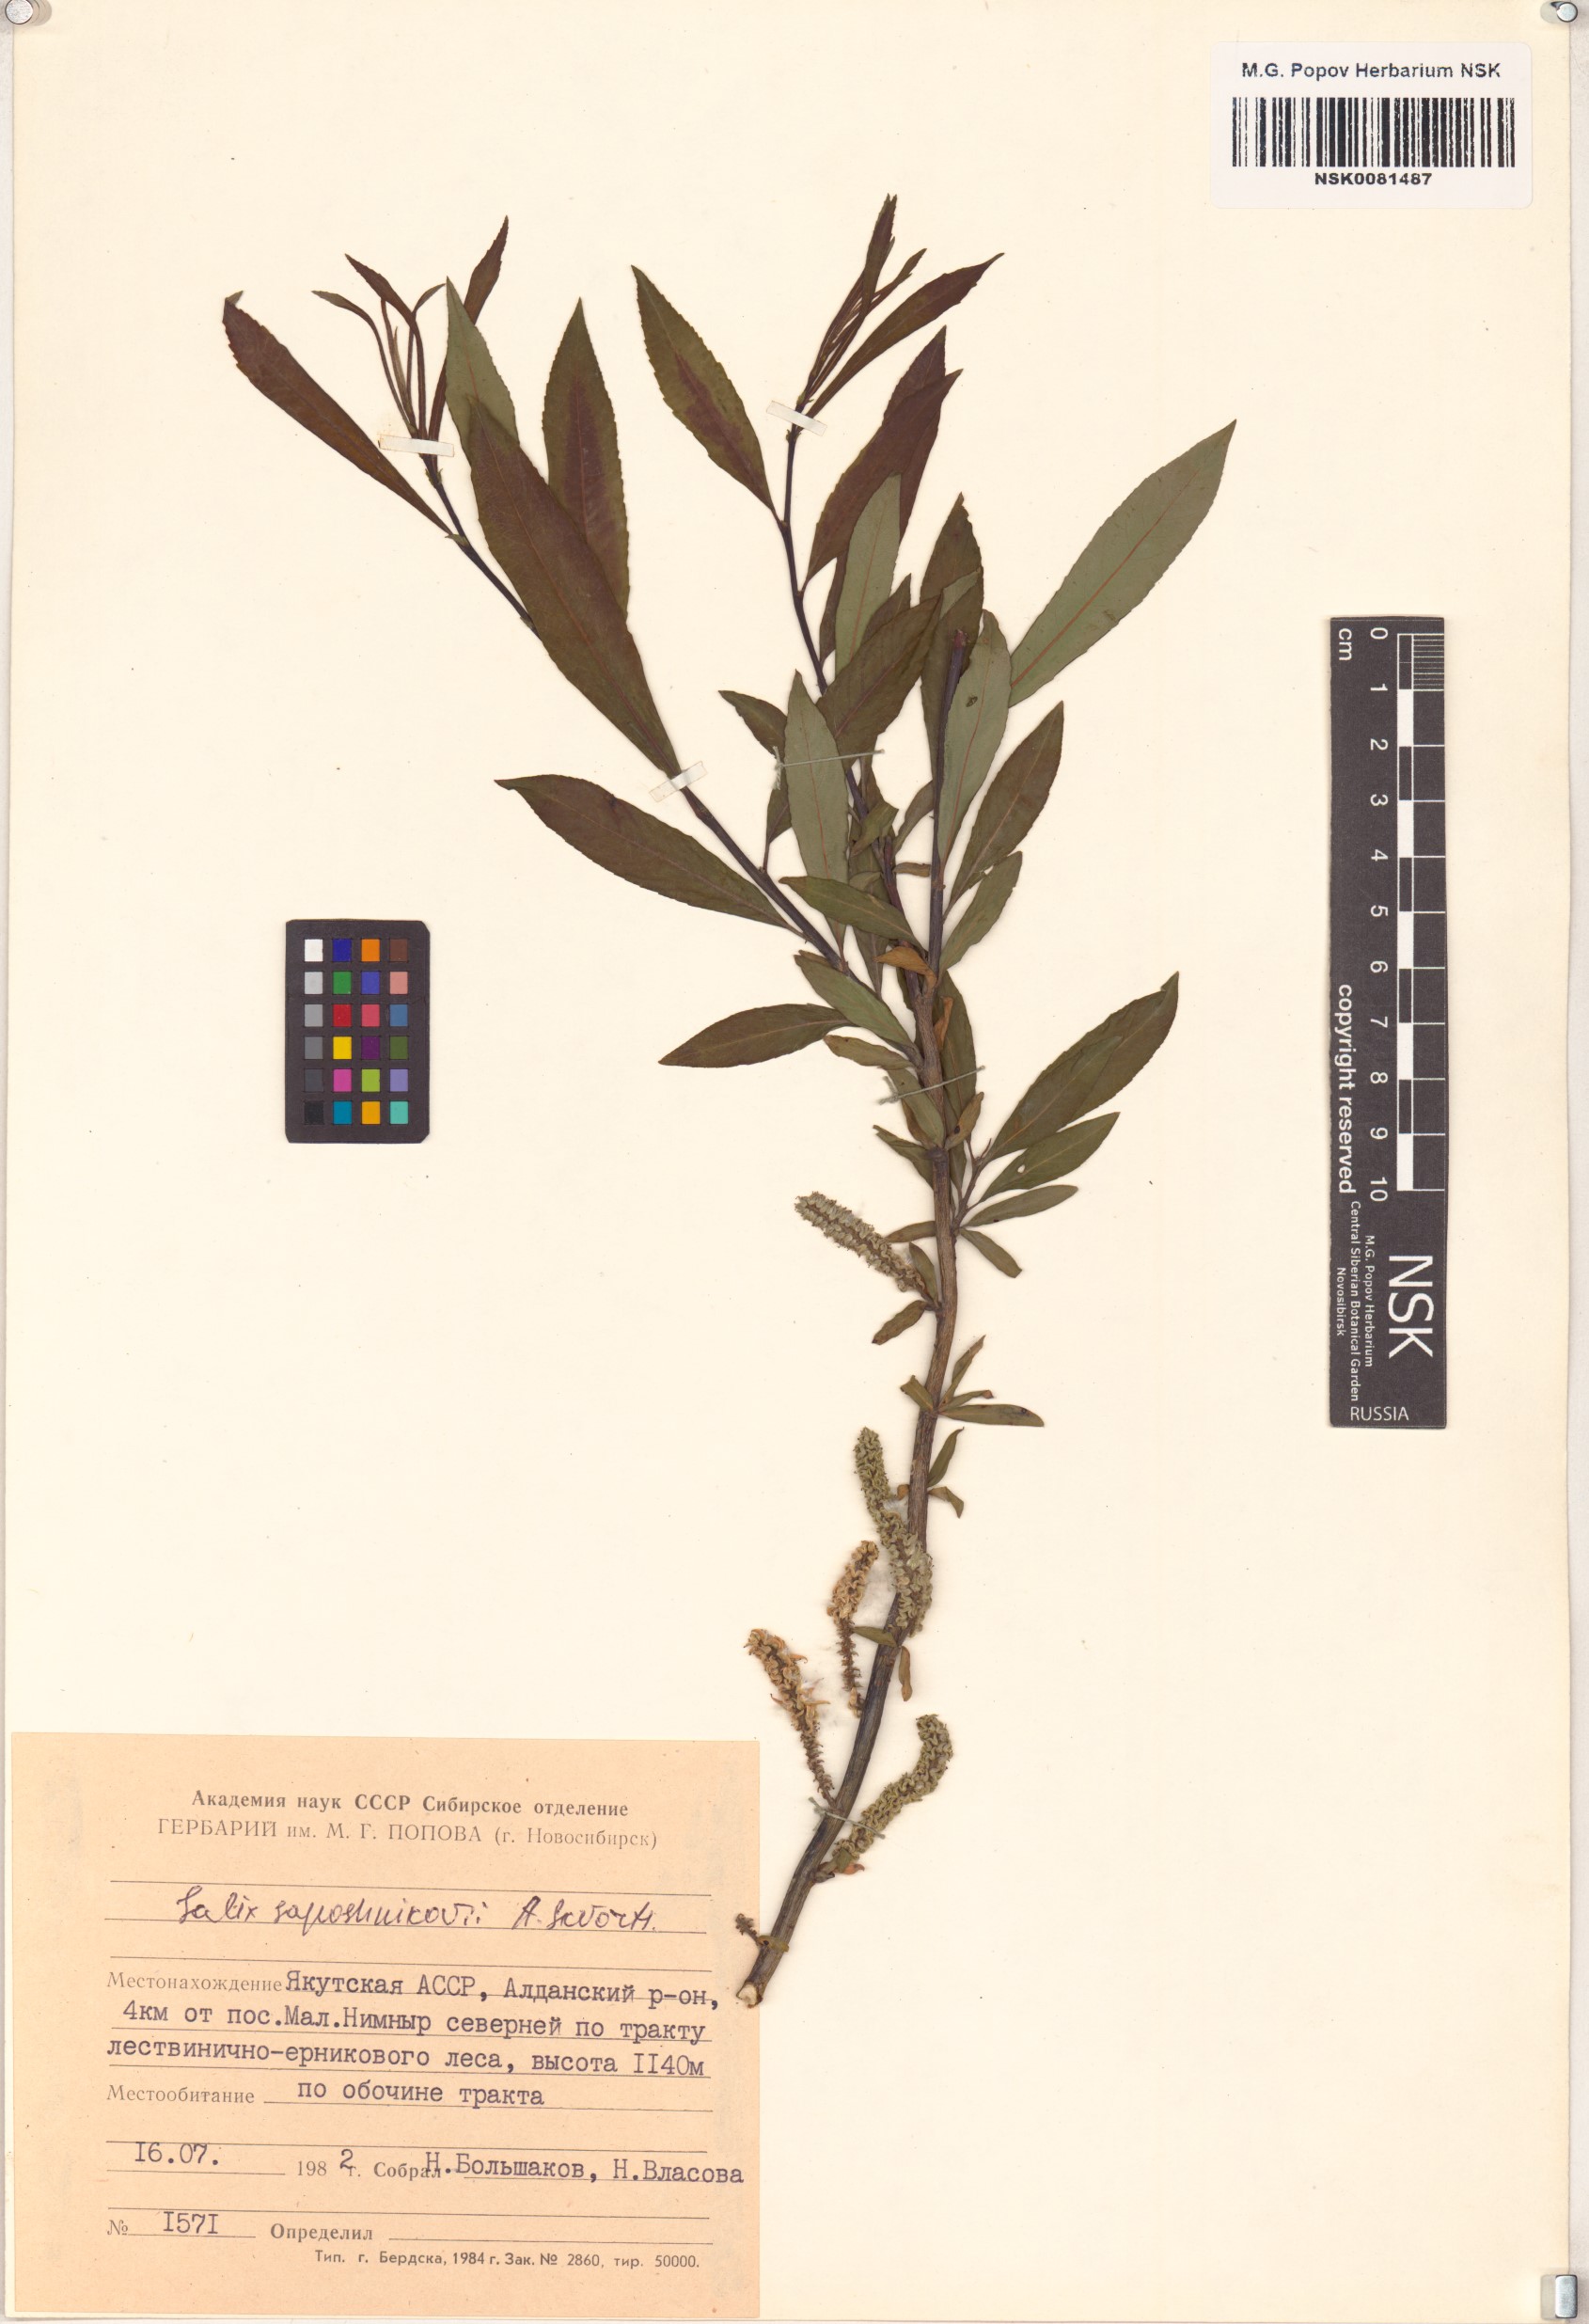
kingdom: Plantae
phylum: Tracheophyta
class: Magnoliopsida
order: Malpighiales
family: Salicaceae
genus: Salix
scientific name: Salix saposhnikovii
